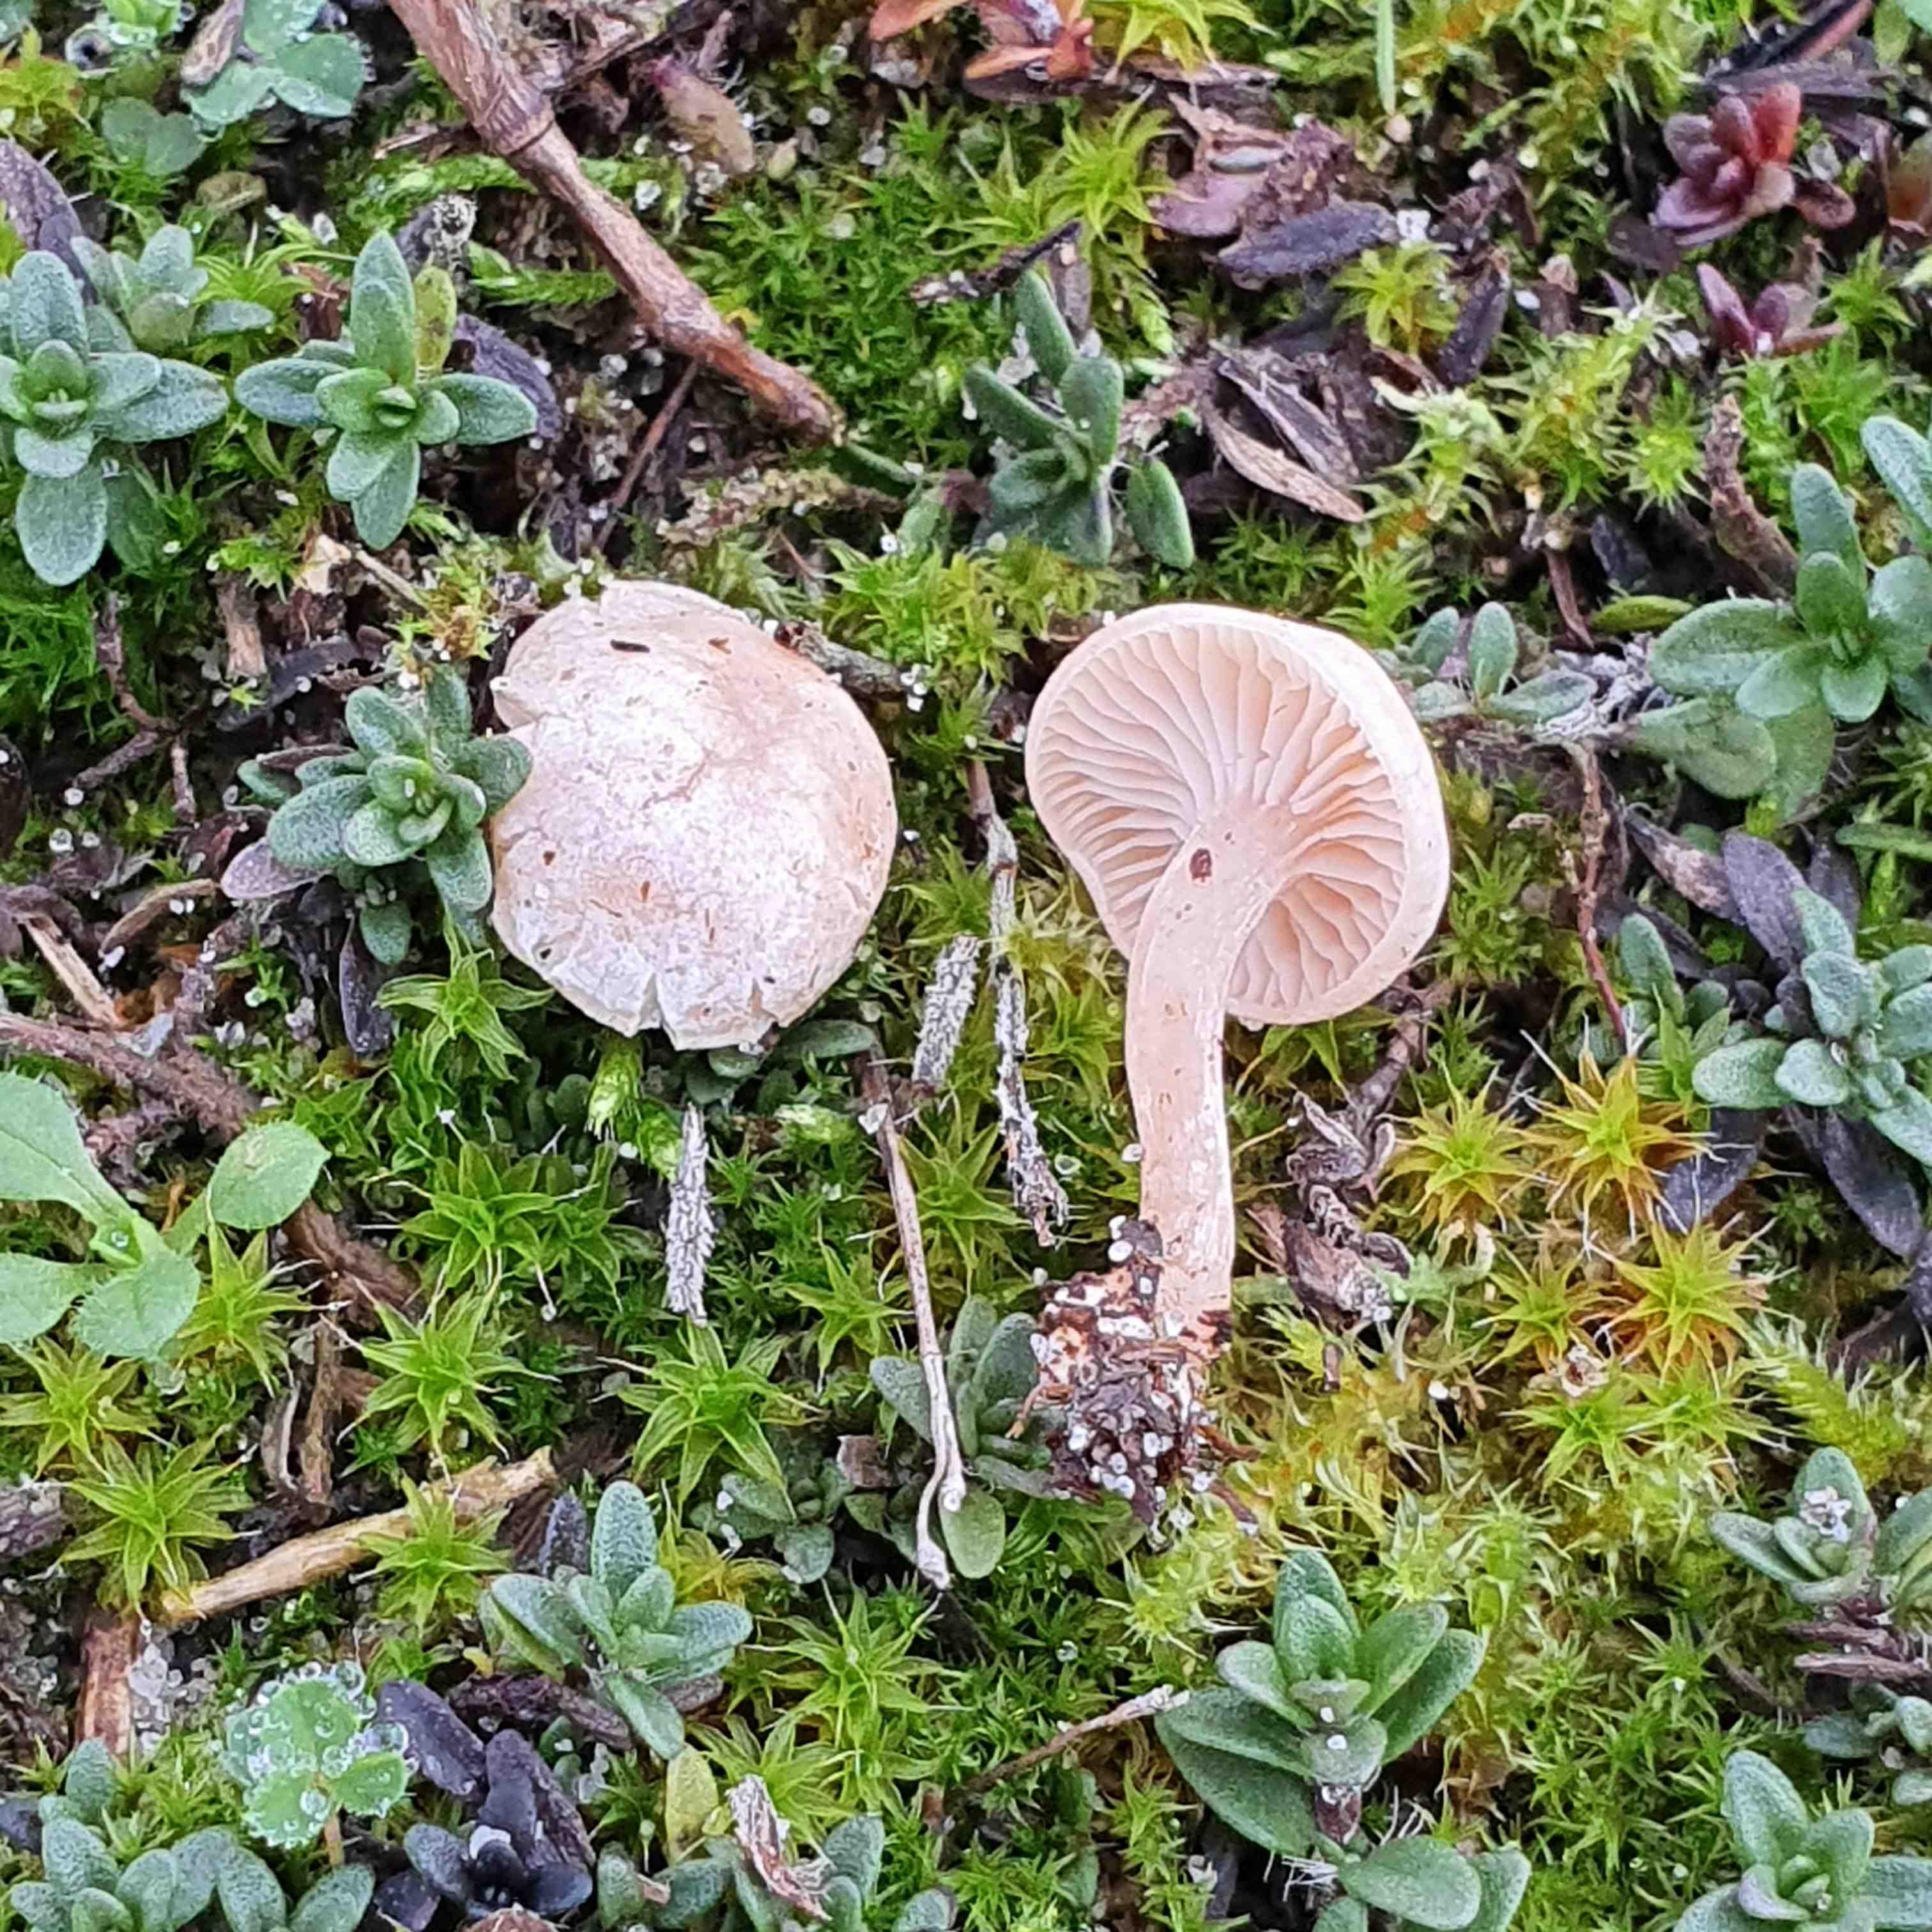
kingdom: Fungi
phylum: Basidiomycota
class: Agaricomycetes
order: Agaricales
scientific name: Agaricales
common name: champignonordenen
